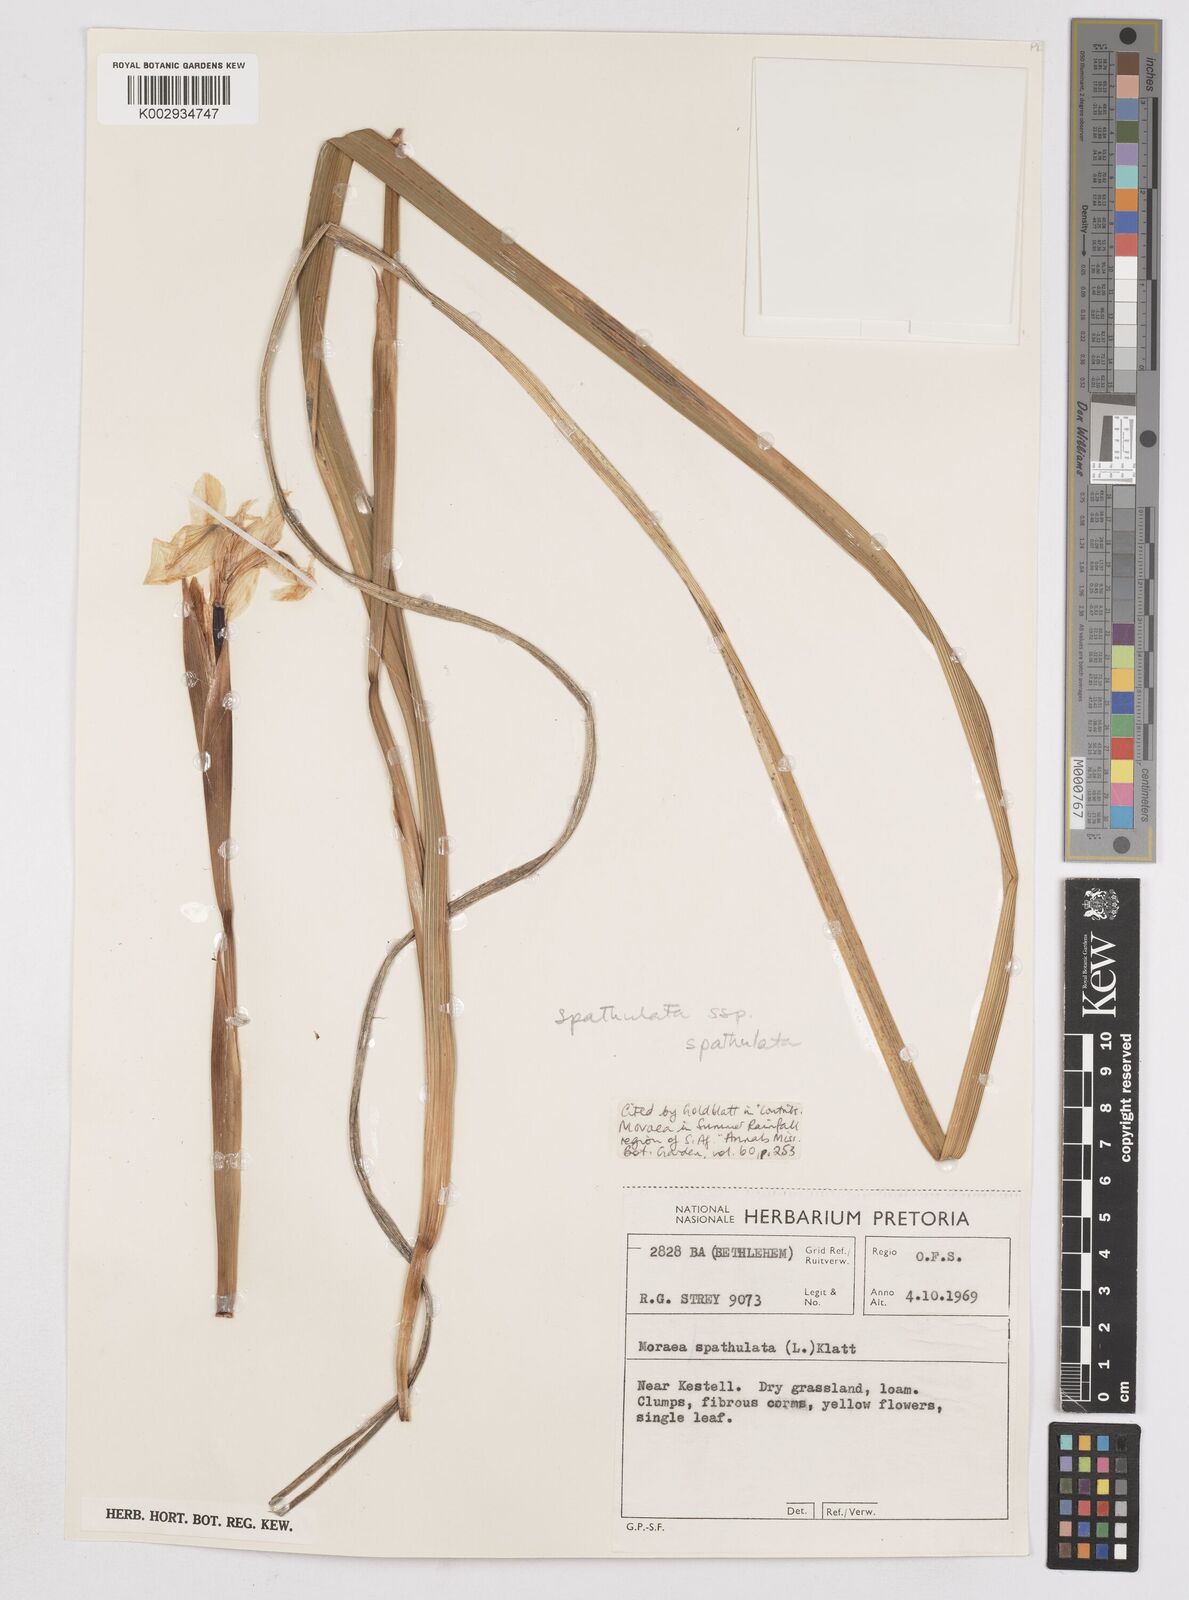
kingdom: Plantae
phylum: Tracheophyta
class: Liliopsida
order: Asparagales
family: Iridaceae
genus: Moraea
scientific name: Moraea spathulata
